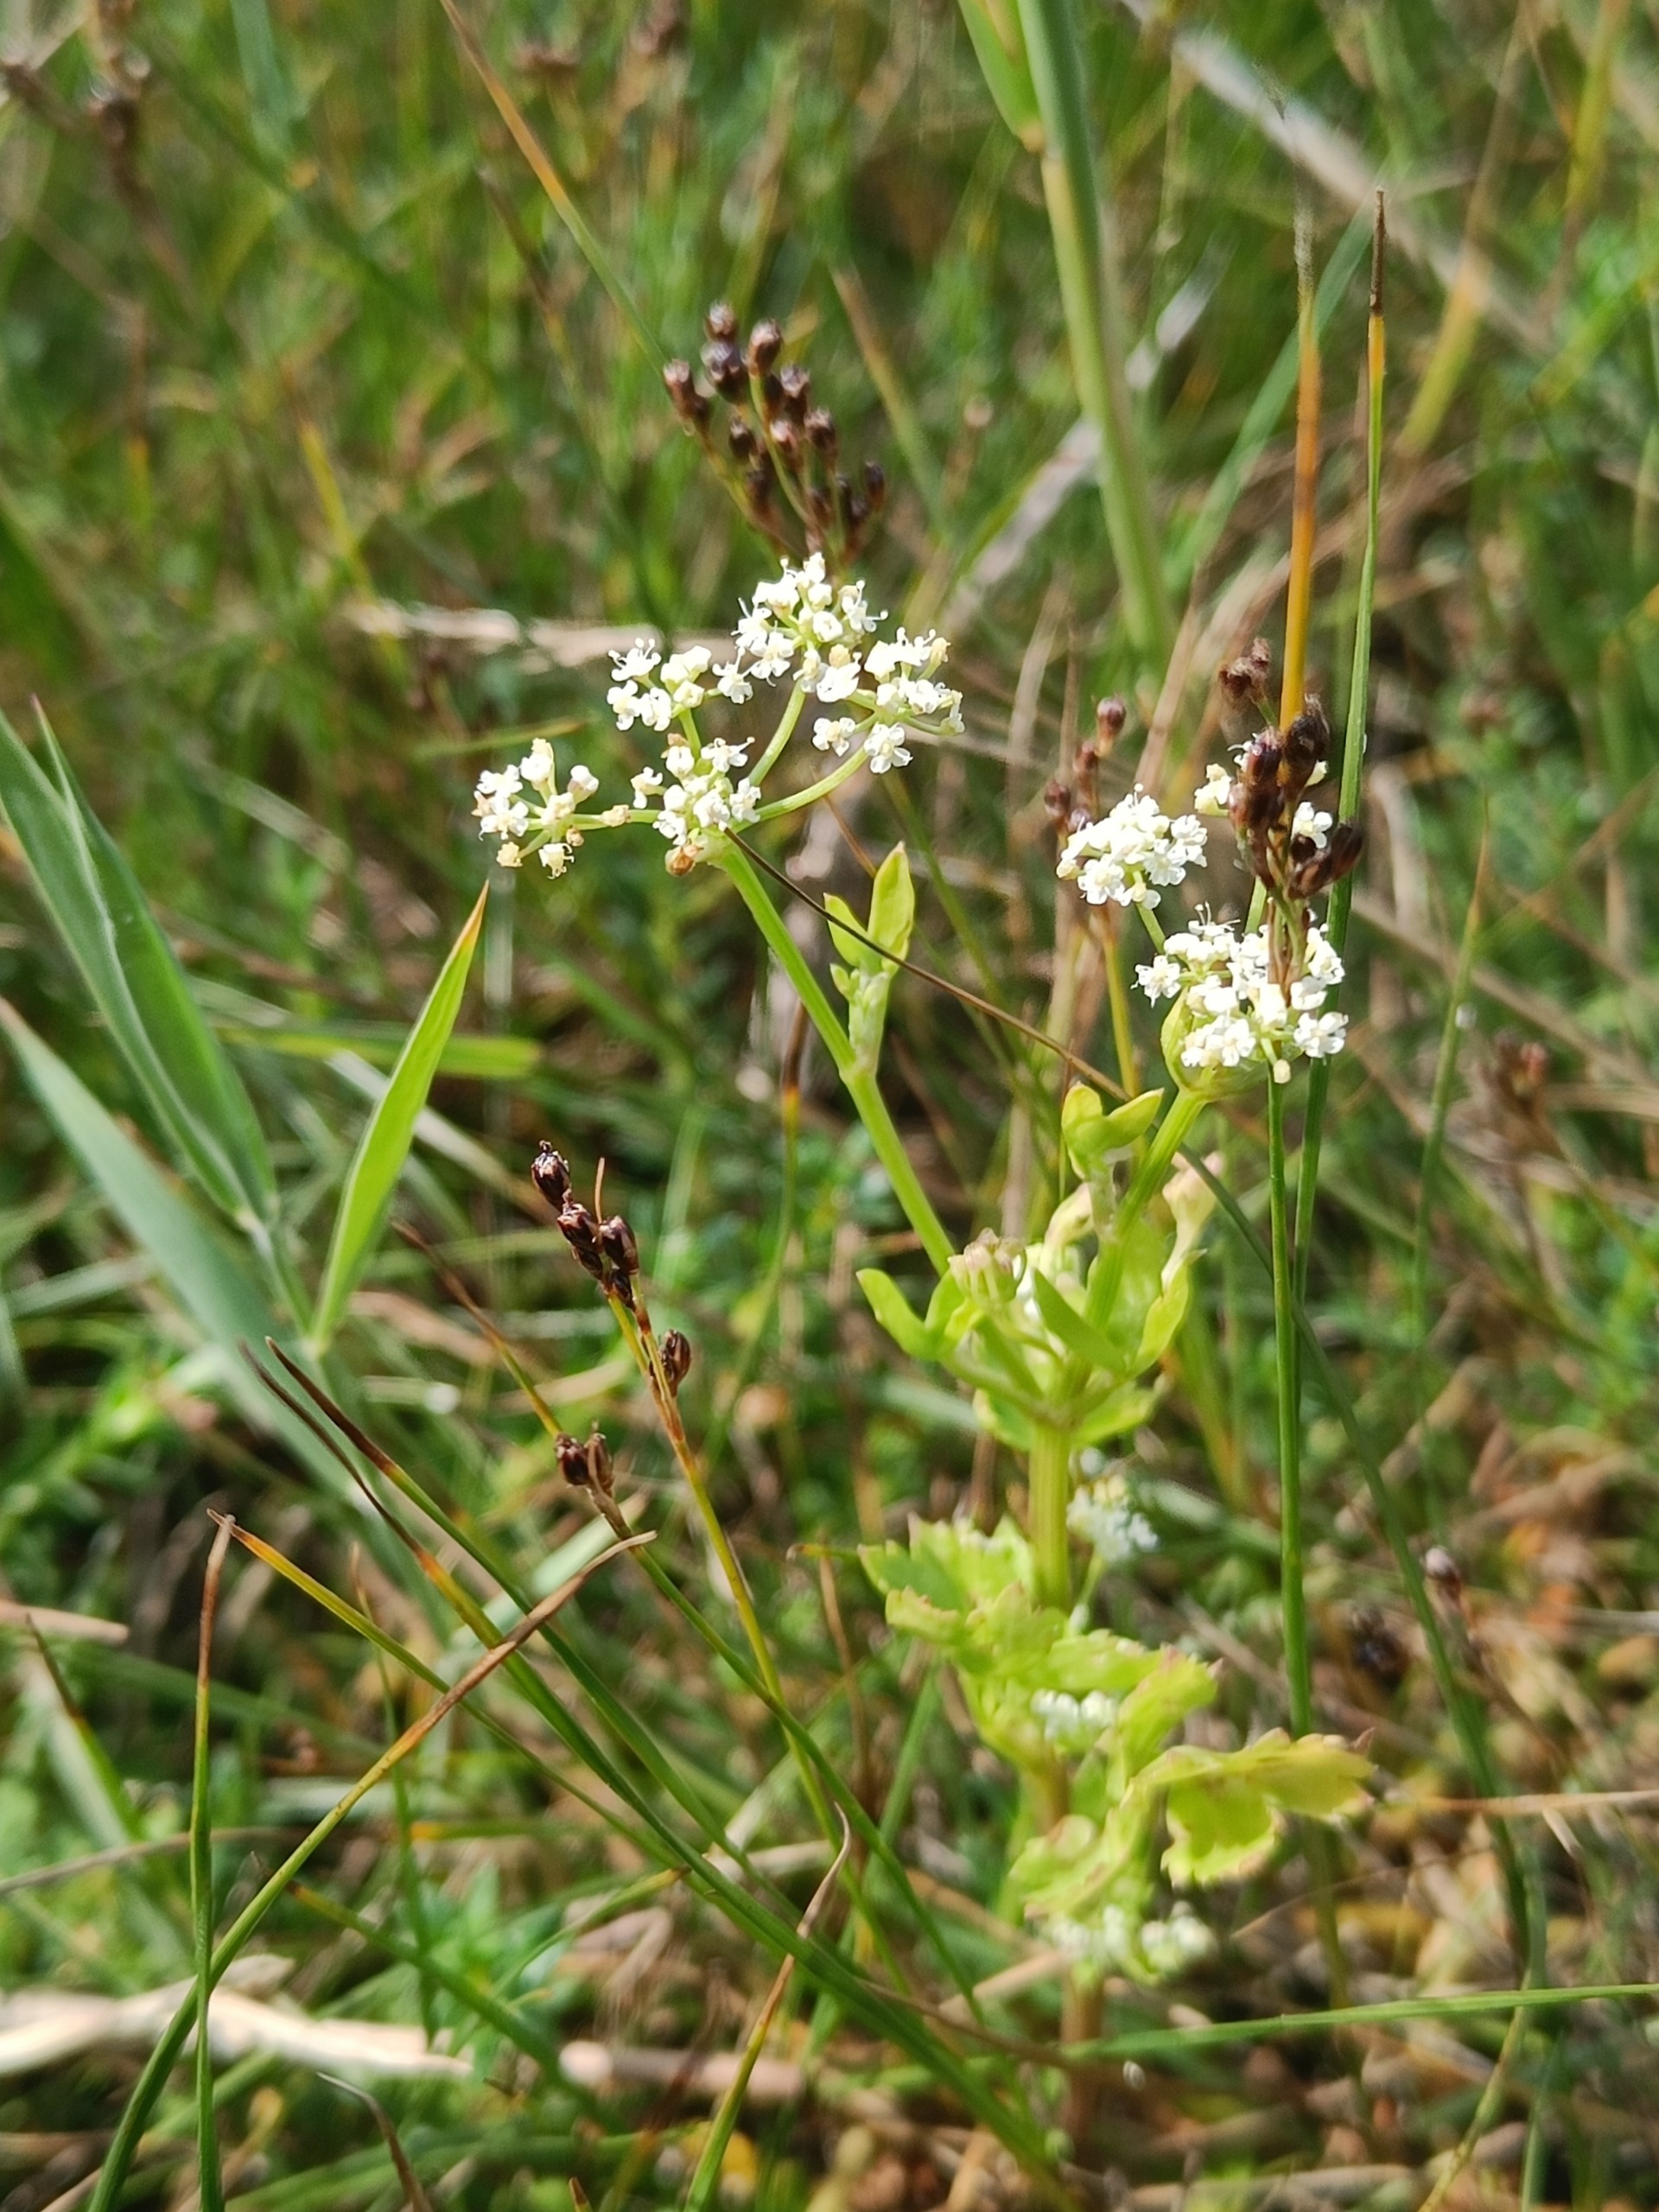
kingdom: Plantae
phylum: Tracheophyta
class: Magnoliopsida
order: Apiales
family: Apiaceae
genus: Apium
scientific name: Apium graveolens
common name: Vild selleri
